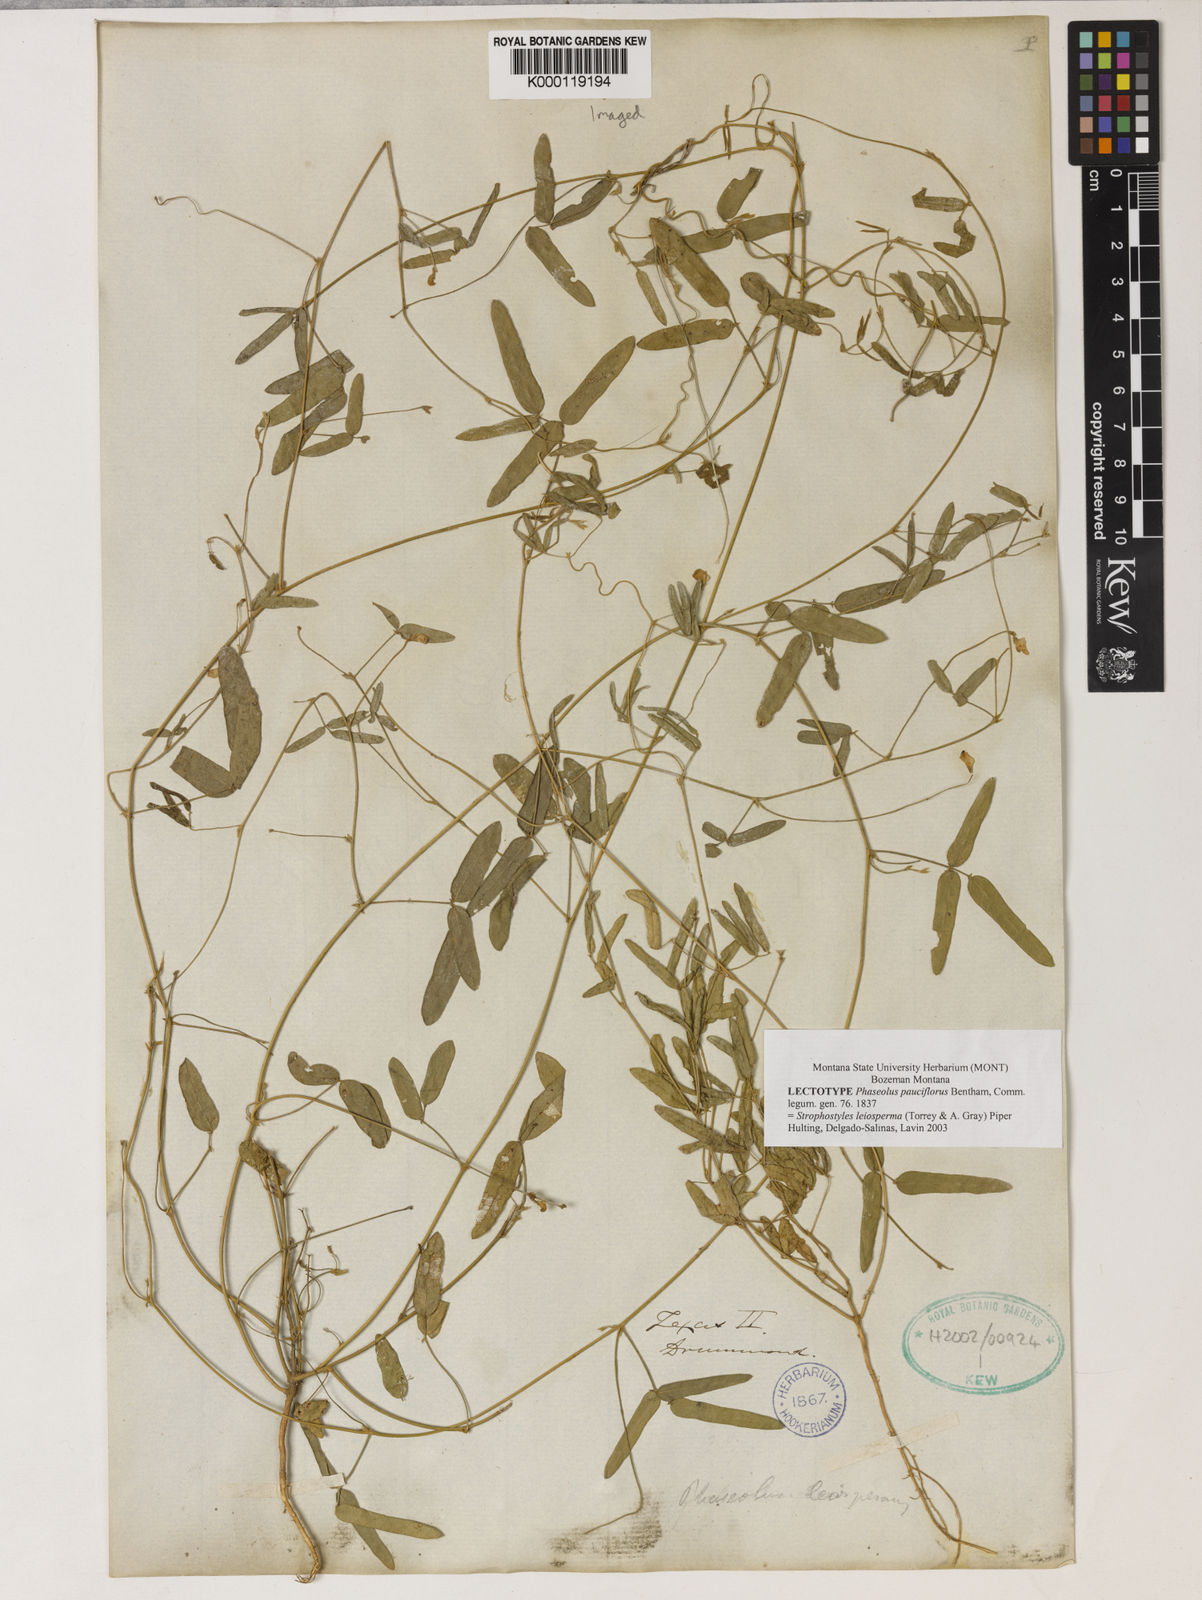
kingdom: Plantae
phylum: Tracheophyta
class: Magnoliopsida
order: Fabales
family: Fabaceae
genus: Strophostyles
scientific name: Strophostyles leiosperma
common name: Smooth-seed wild bean
